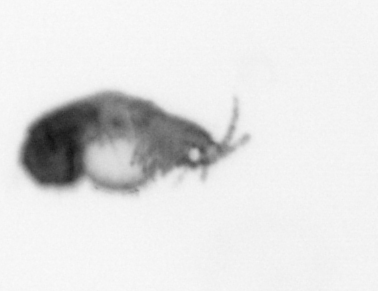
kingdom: Animalia
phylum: Annelida
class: Polychaeta
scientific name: Polychaeta
